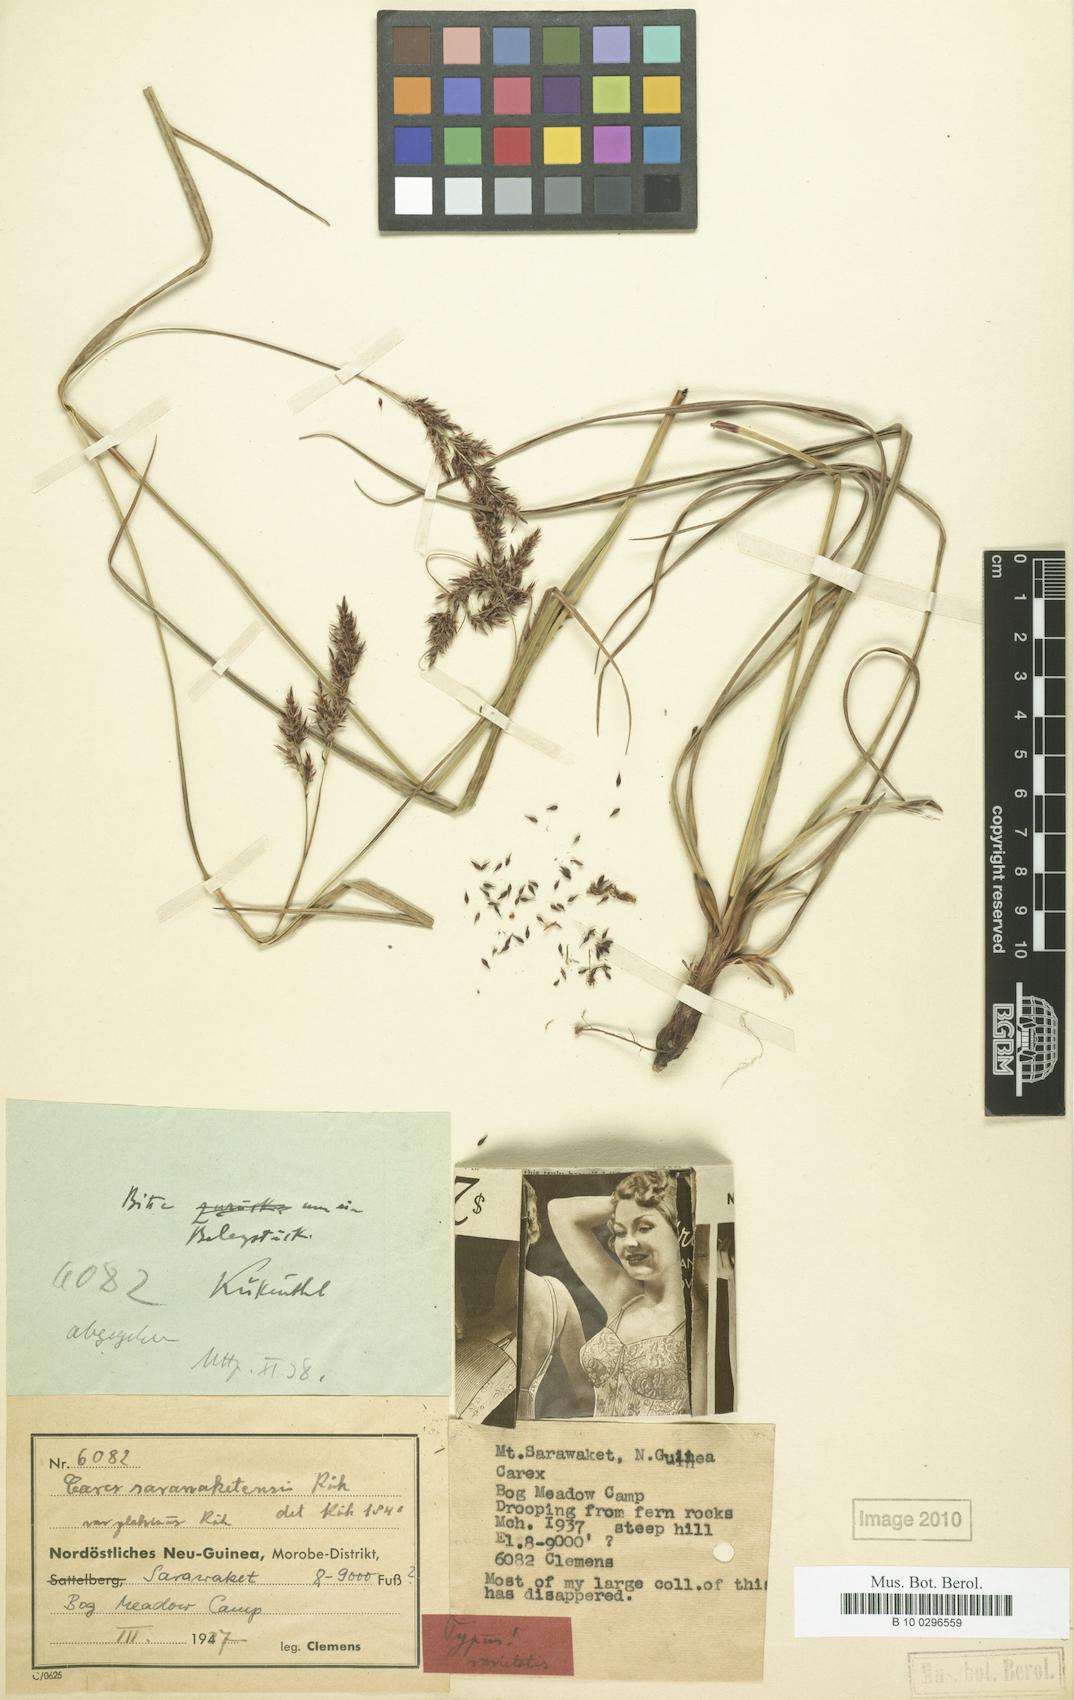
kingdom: Plantae
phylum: Tracheophyta
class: Liliopsida
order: Poales
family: Cyperaceae
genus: Carex
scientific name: Carex sarawaketensis
